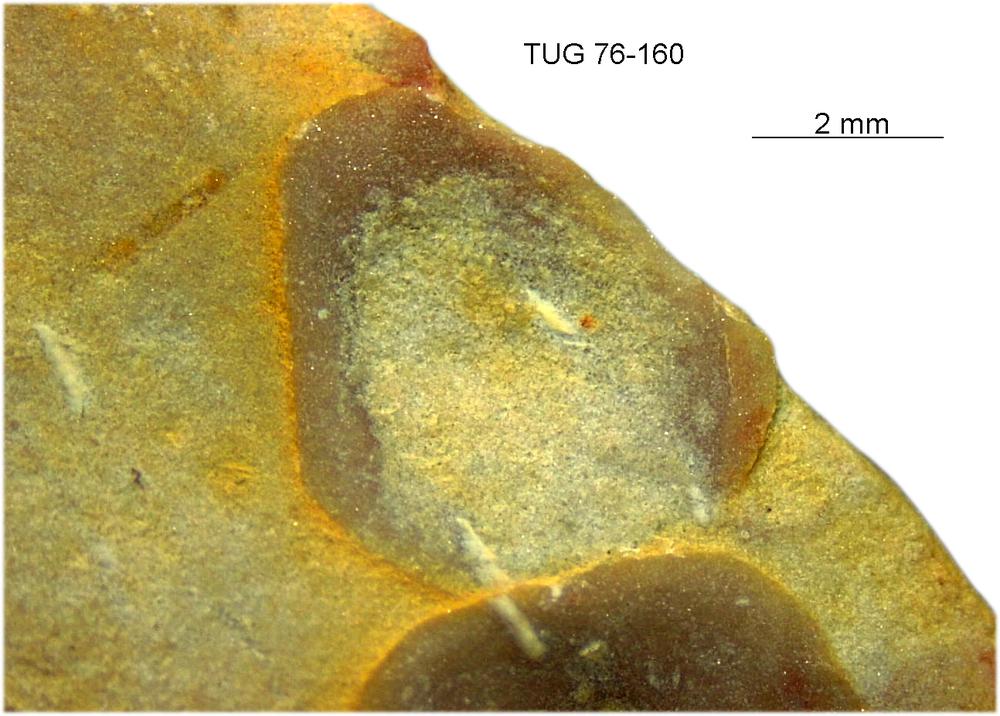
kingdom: Animalia
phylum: Brachiopoda
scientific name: Brachiopoda
